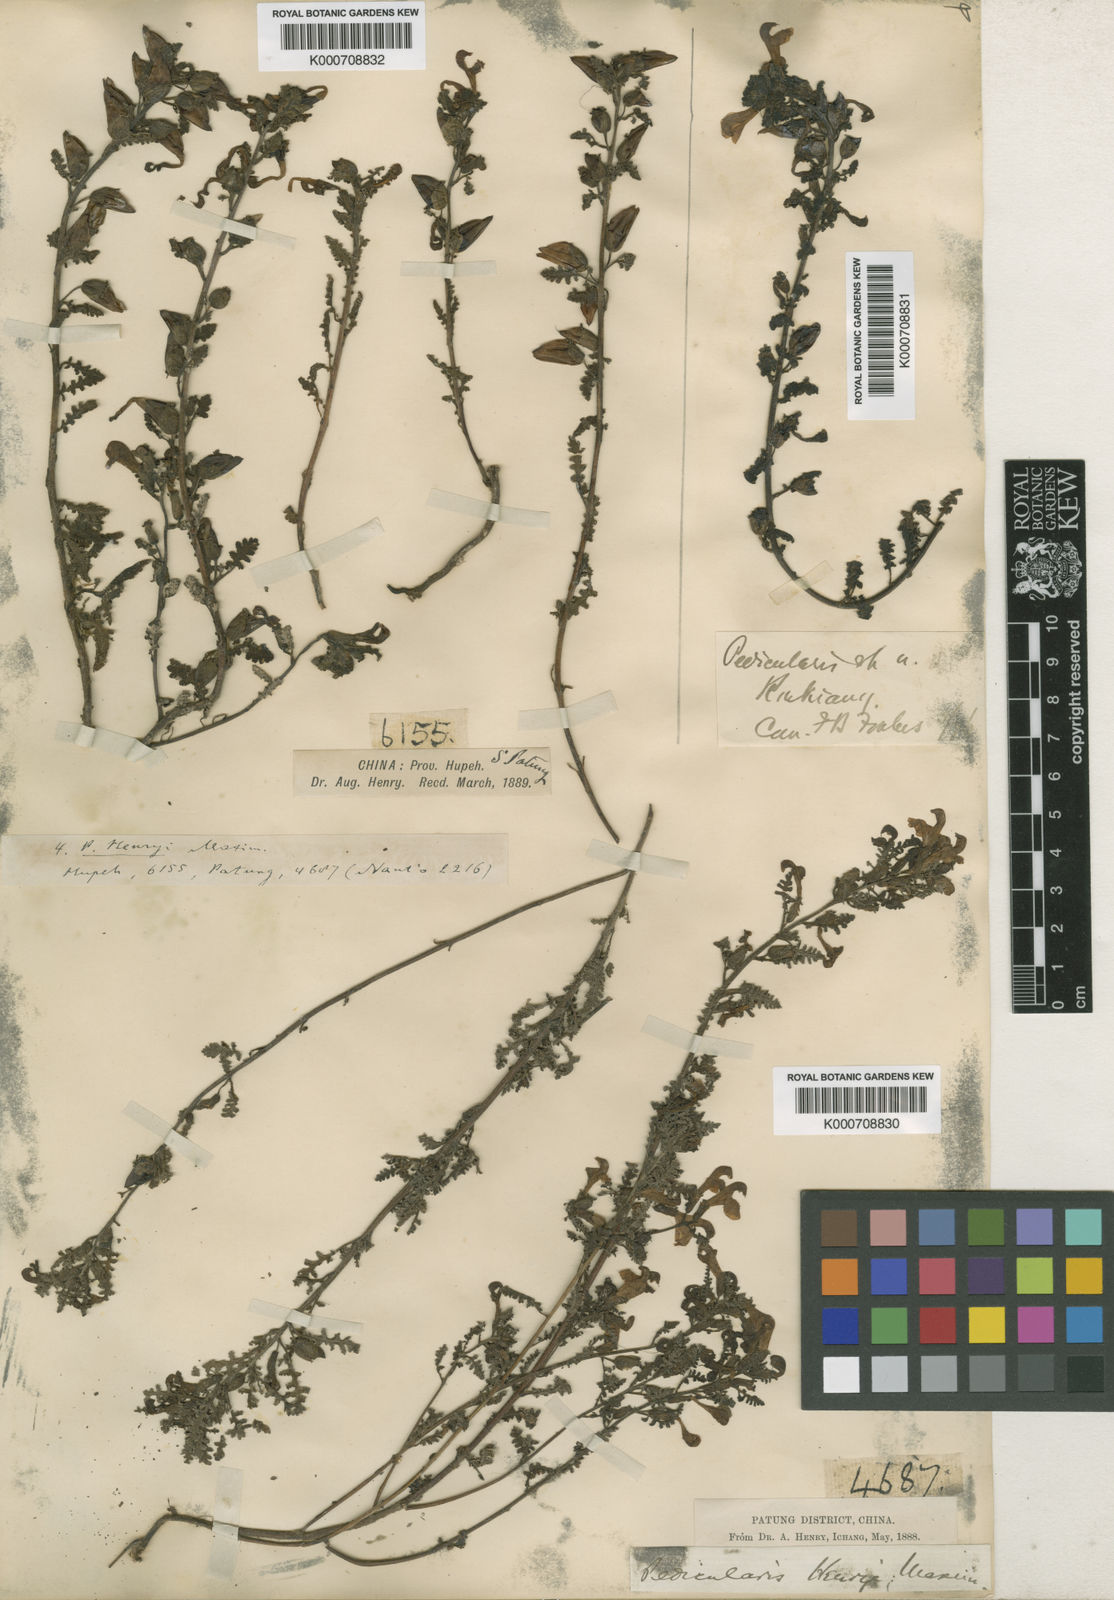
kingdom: Plantae
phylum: Tracheophyta
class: Magnoliopsida
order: Lamiales
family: Orobanchaceae
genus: Pedicularis
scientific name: Pedicularis
